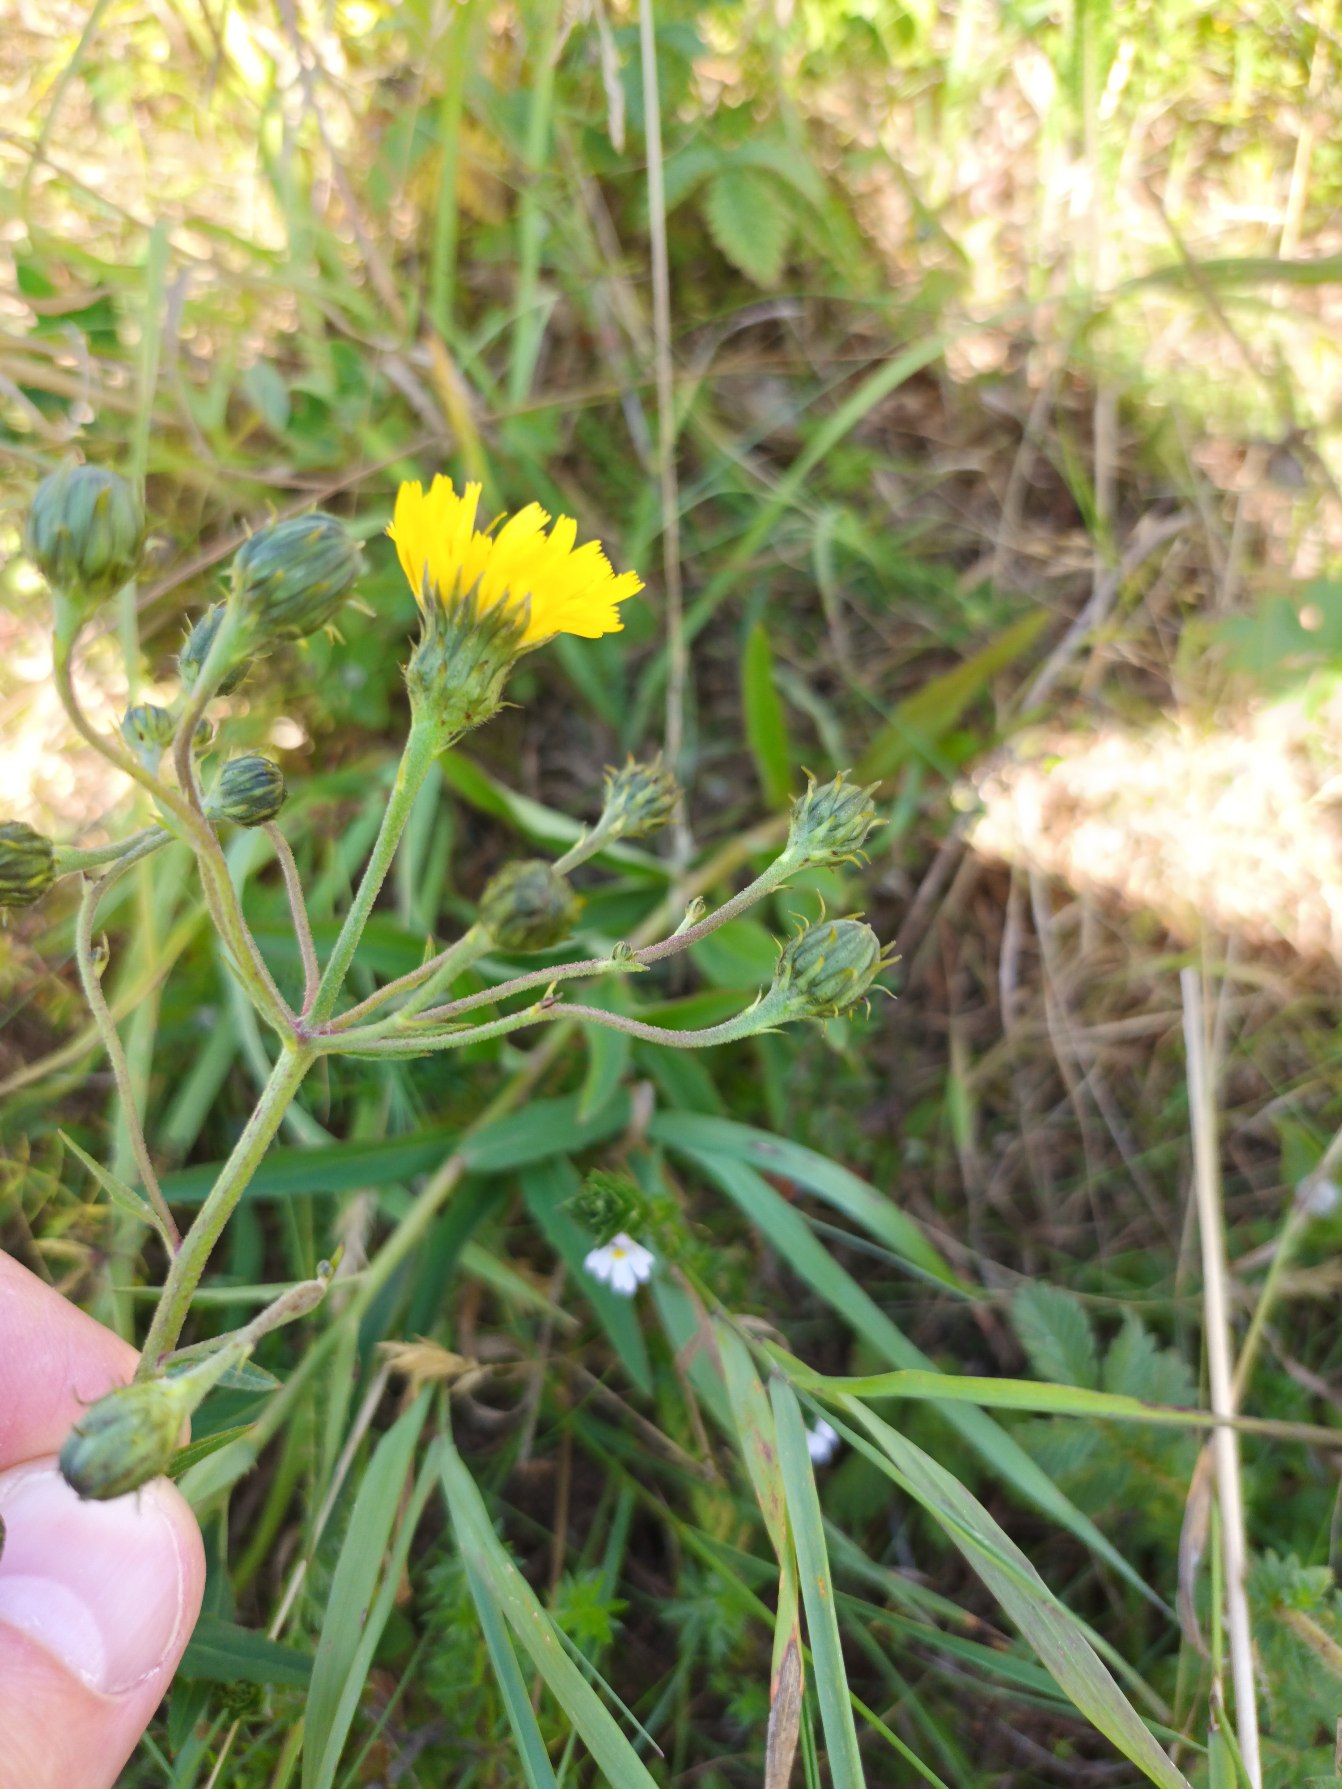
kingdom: Plantae
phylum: Tracheophyta
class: Magnoliopsida
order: Asterales
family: Asteraceae
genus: Hieracium
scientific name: Hieracium umbellatum
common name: Smalbladet høgeurt
